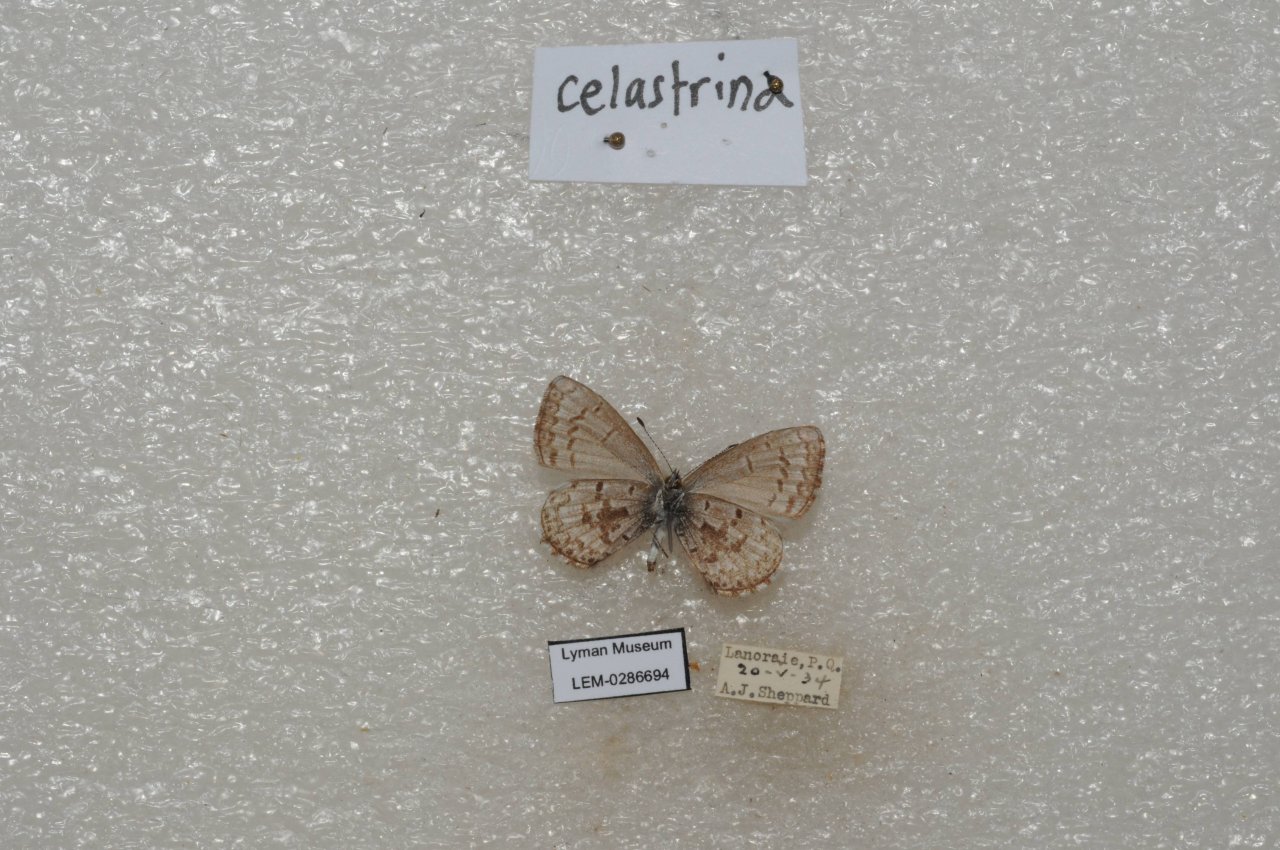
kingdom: Animalia
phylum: Arthropoda
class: Insecta
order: Lepidoptera
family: Lycaenidae
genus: Celastrina
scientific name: Celastrina lucia
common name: Northern Spring Azure
